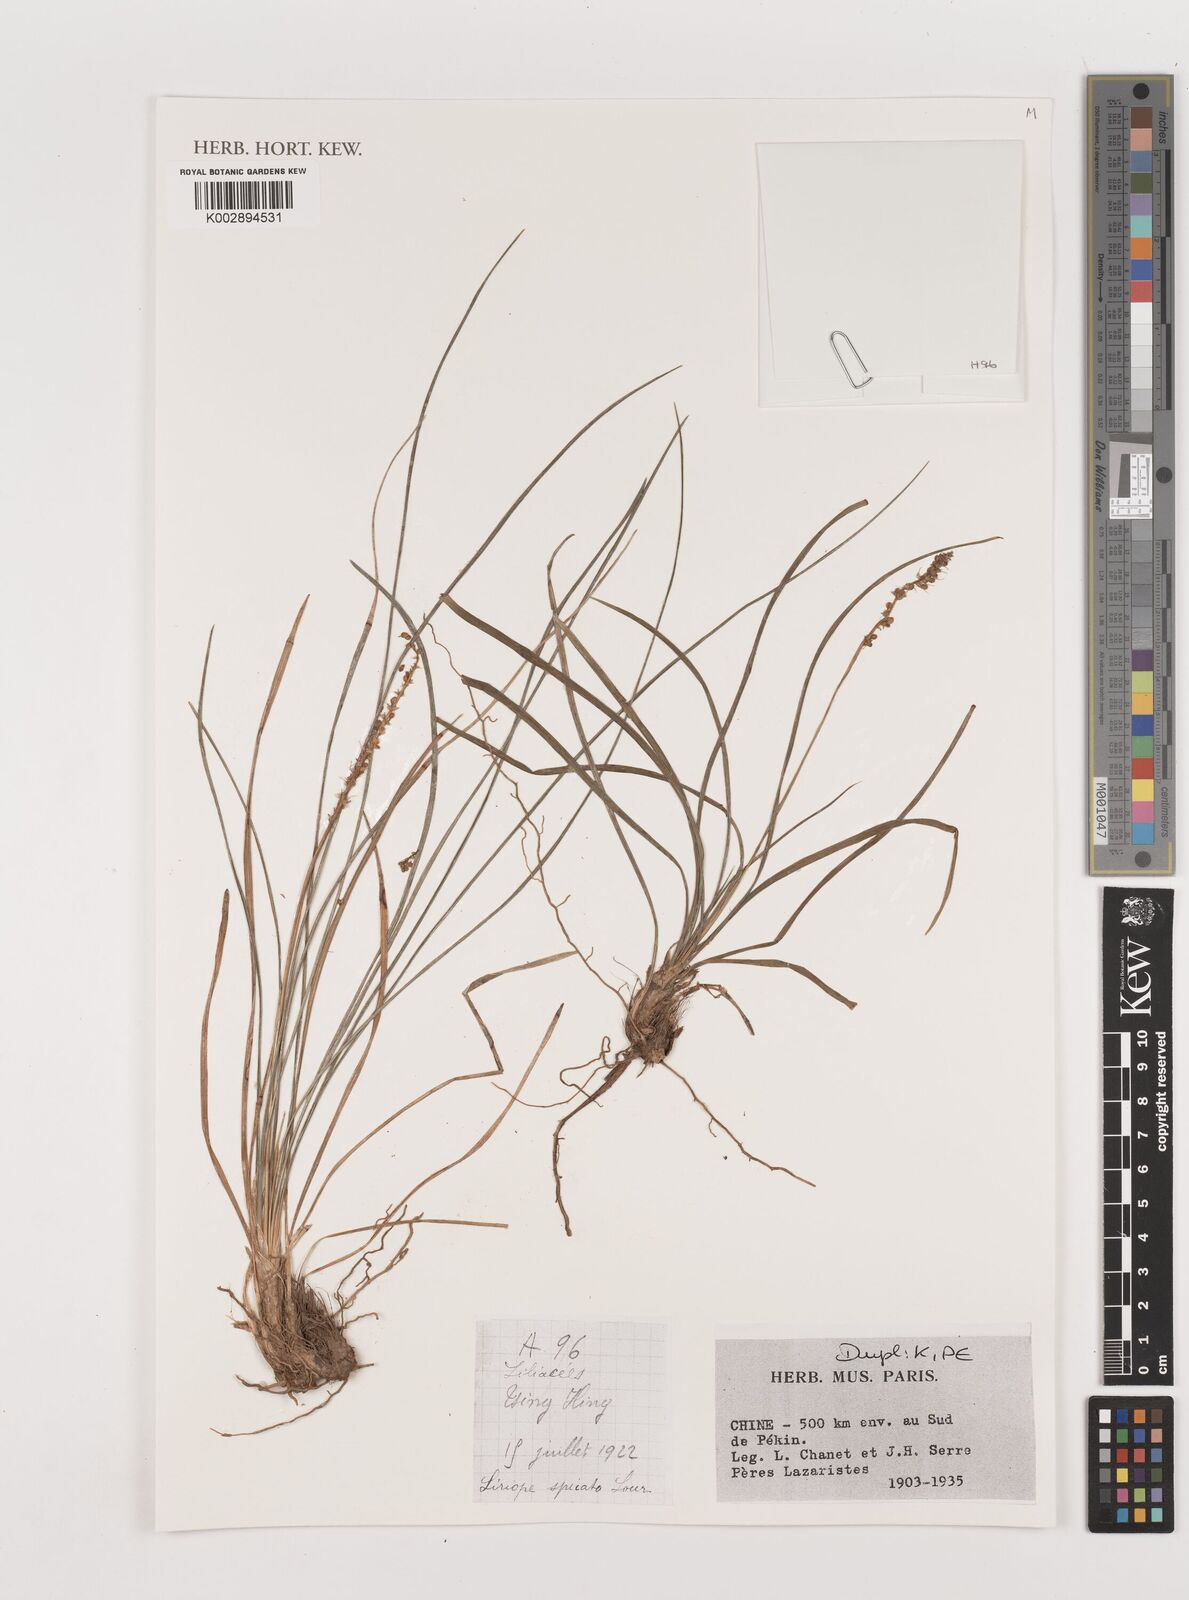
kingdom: Plantae
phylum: Tracheophyta
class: Liliopsida
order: Asparagales
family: Asparagaceae
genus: Liriope
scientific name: Liriope spicata
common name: Creeping liriope
